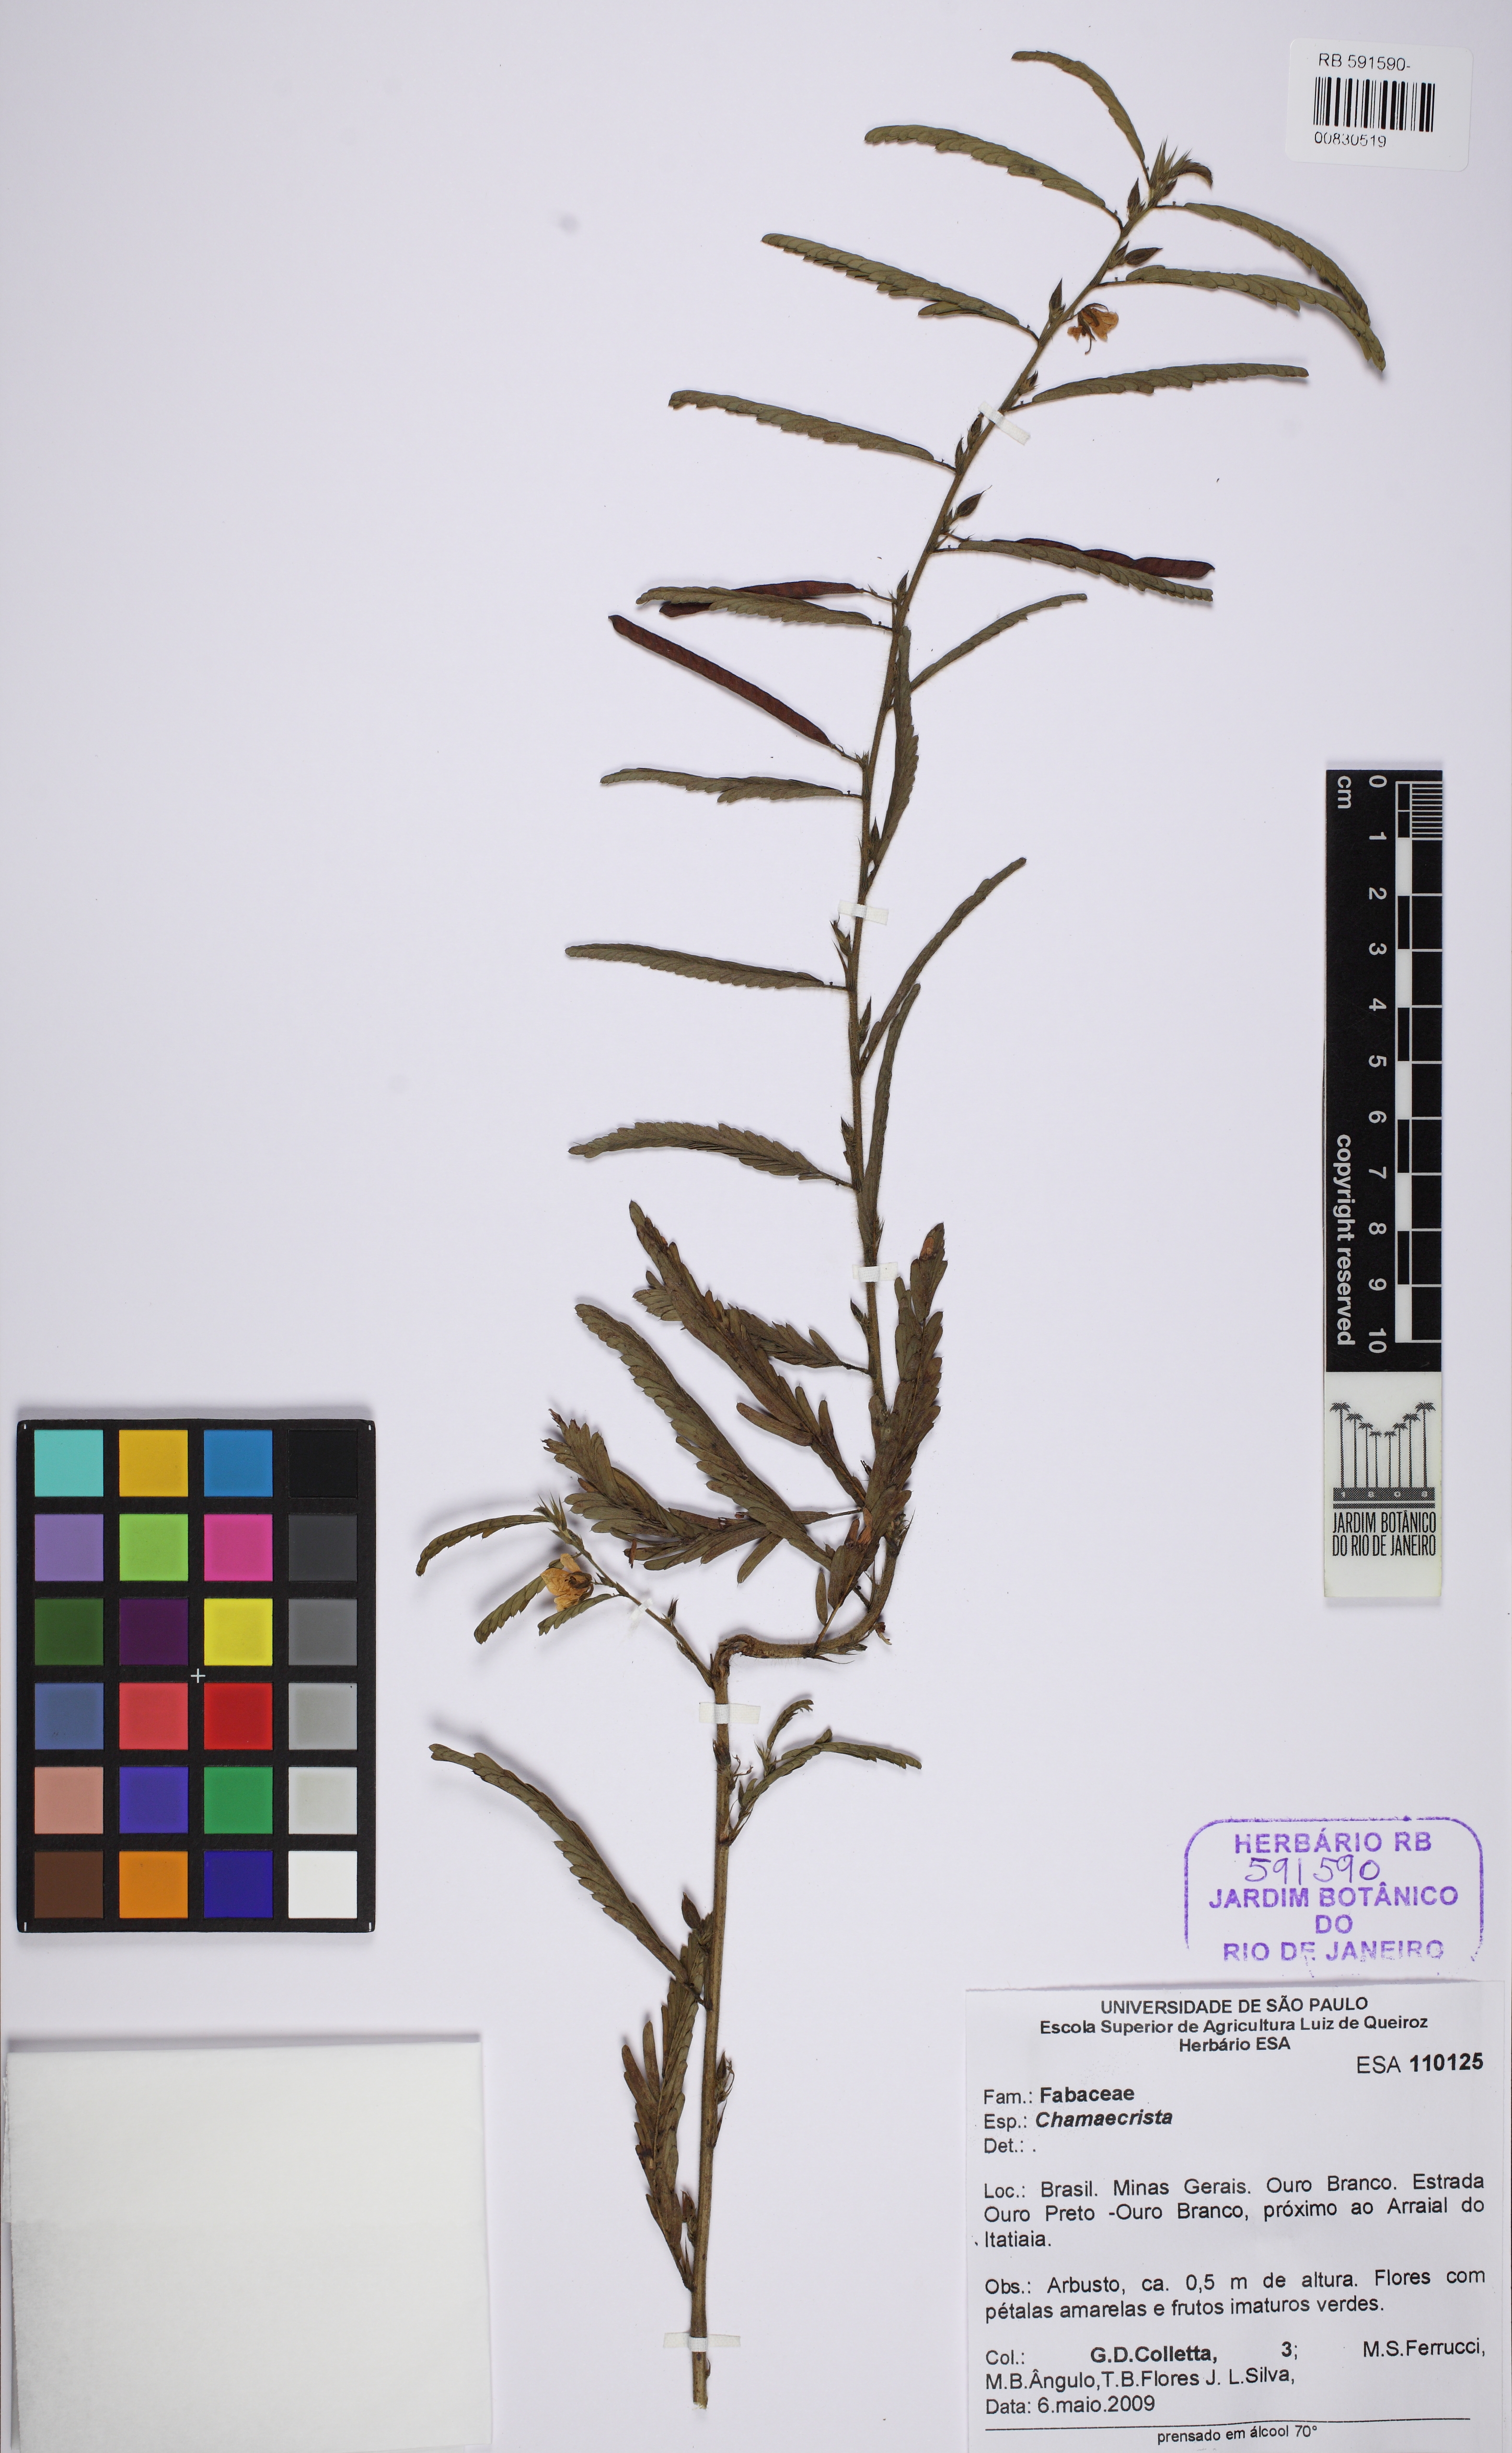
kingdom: Plantae
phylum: Tracheophyta
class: Magnoliopsida
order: Fabales
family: Fabaceae
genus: Chamaecrista
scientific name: Chamaecrista
